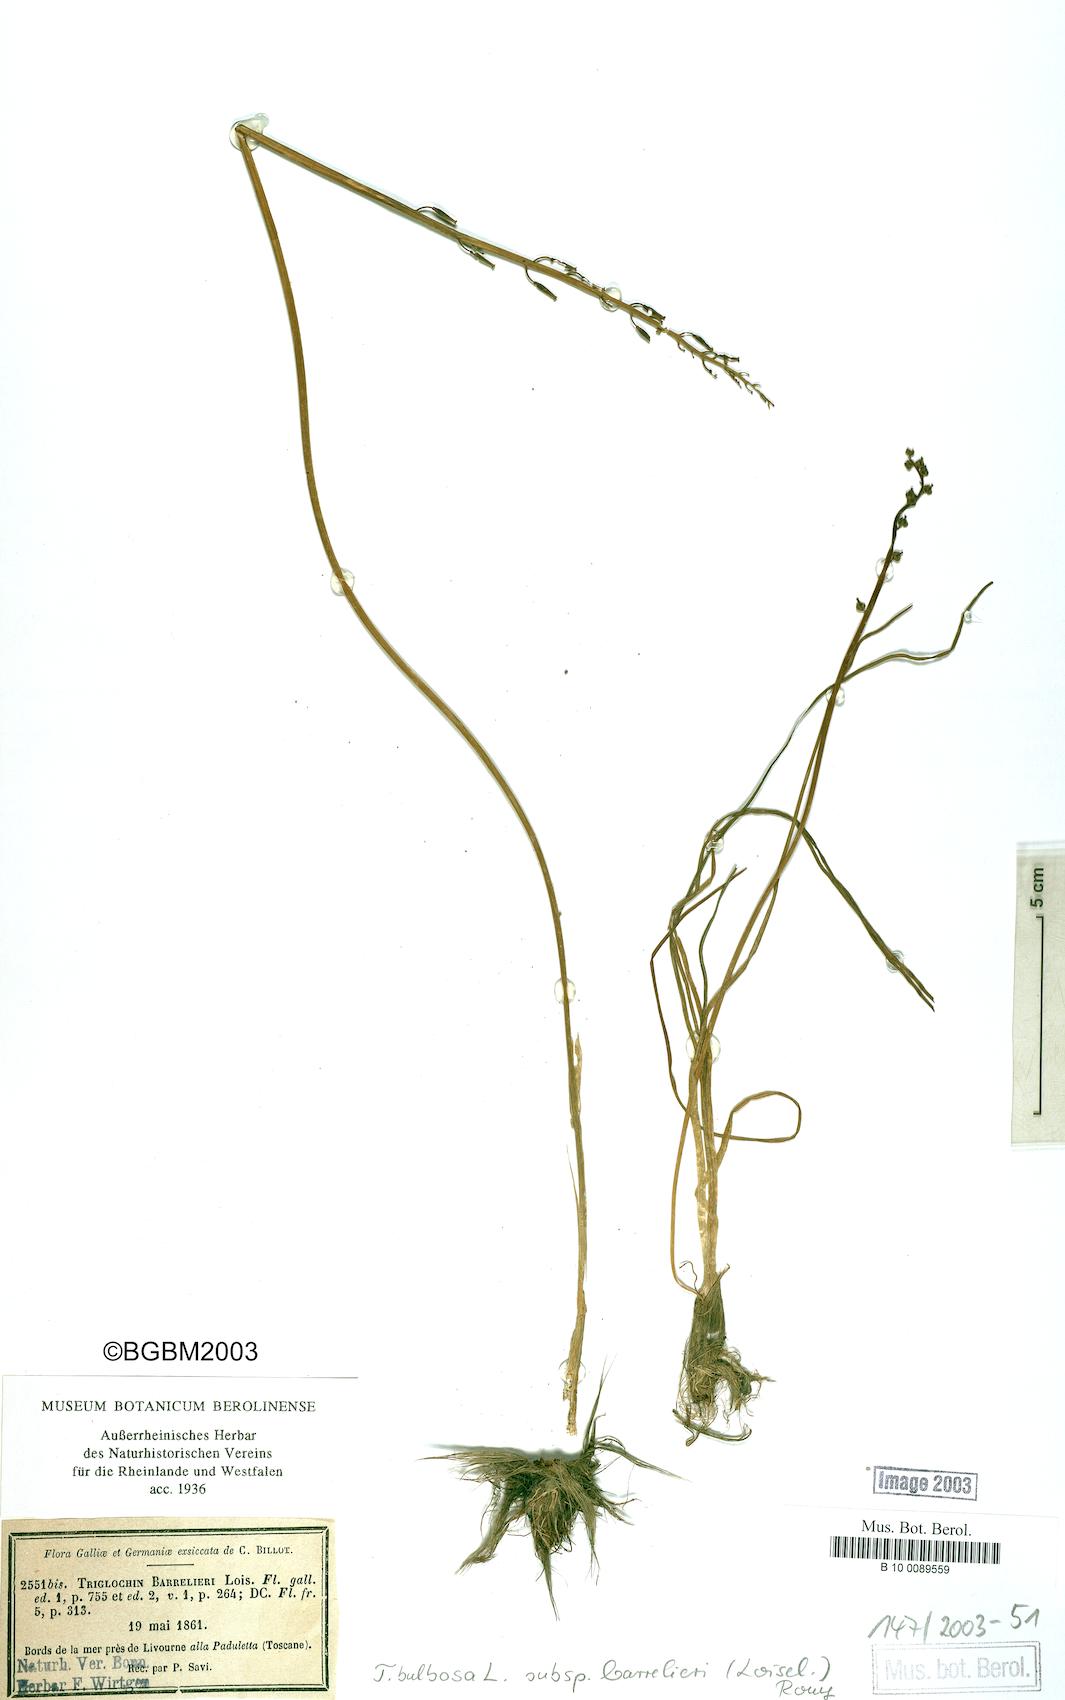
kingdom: Plantae
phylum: Tracheophyta
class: Liliopsida
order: Alismatales
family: Juncaginaceae
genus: Triglochin
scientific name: Triglochin barrelieri
